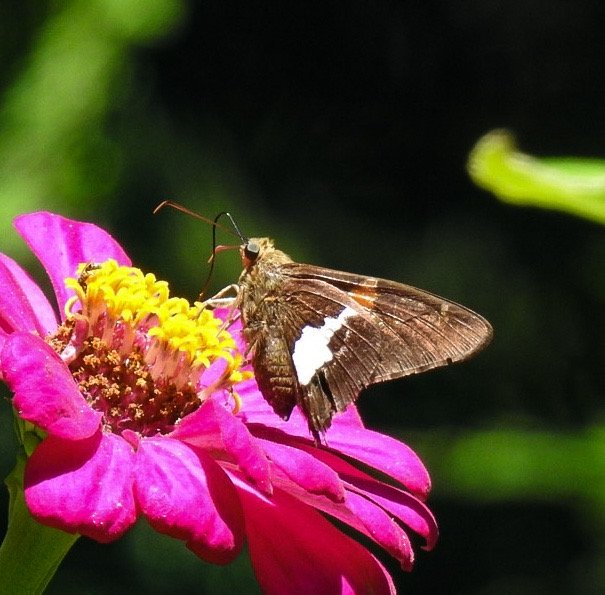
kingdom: Animalia
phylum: Arthropoda
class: Insecta
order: Lepidoptera
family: Hesperiidae
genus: Epargyreus
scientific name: Epargyreus clarus
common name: Silver-spotted Skipper
